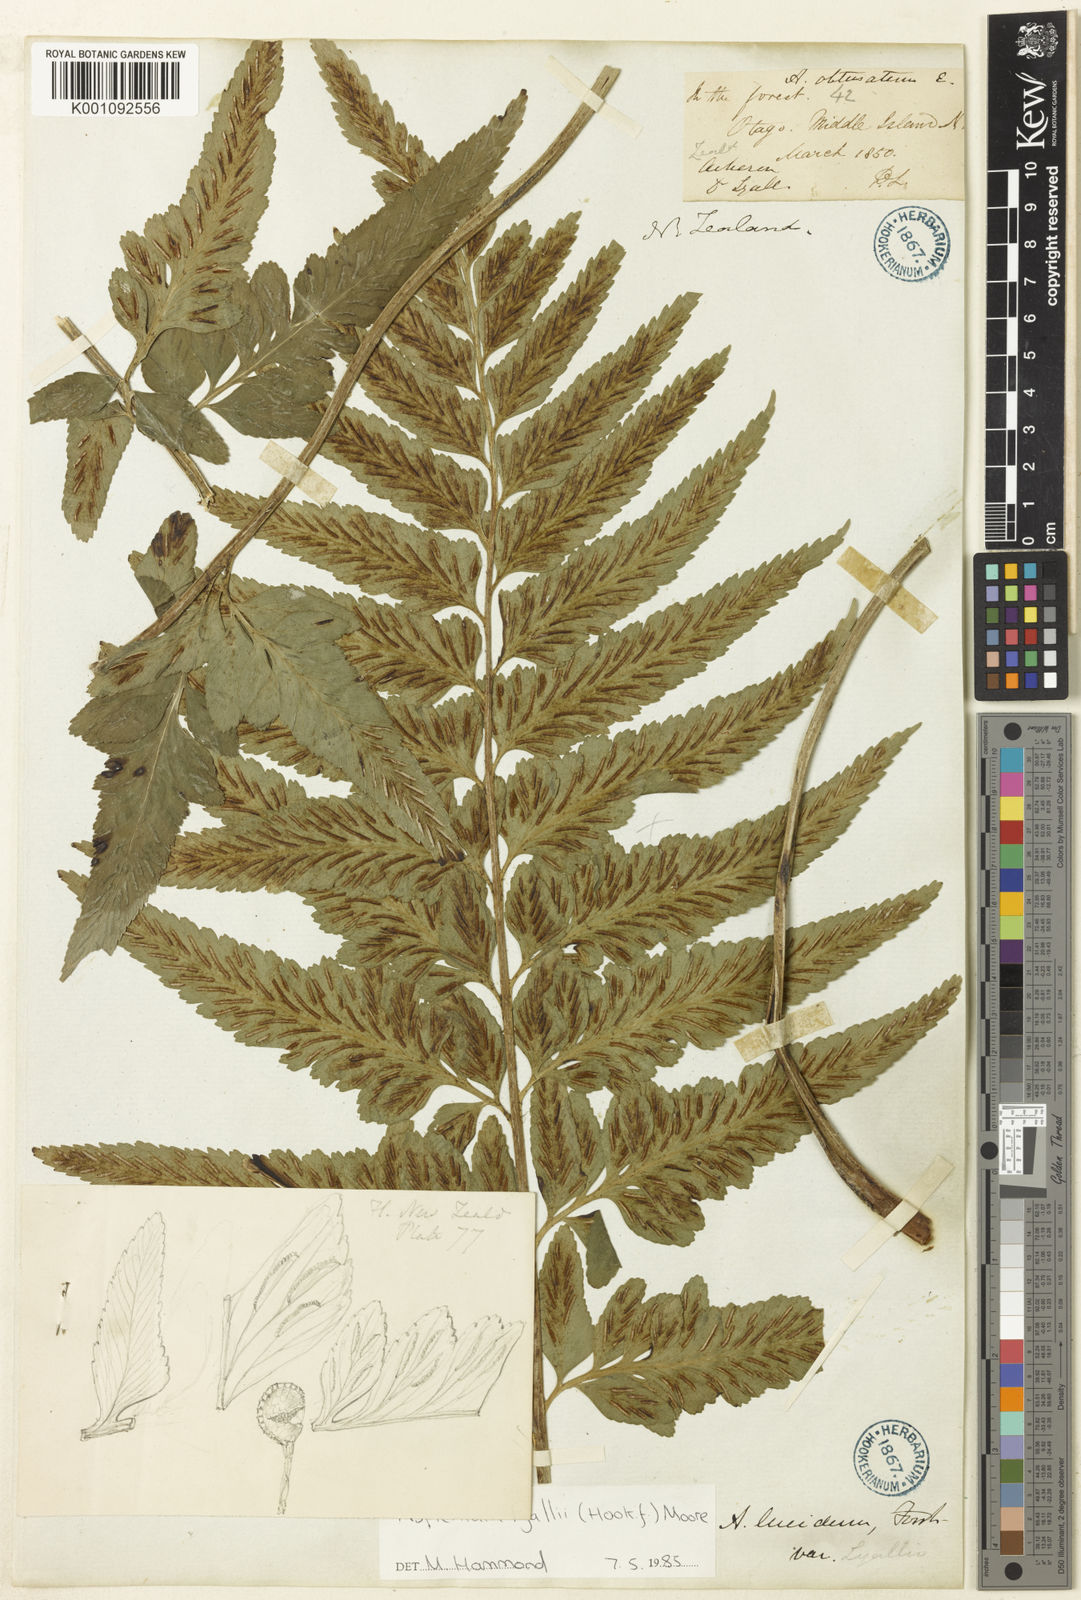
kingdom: Plantae
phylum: Tracheophyta
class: Polypodiopsida
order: Polypodiales
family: Aspleniaceae
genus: Asplenium
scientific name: Asplenium lyallii
